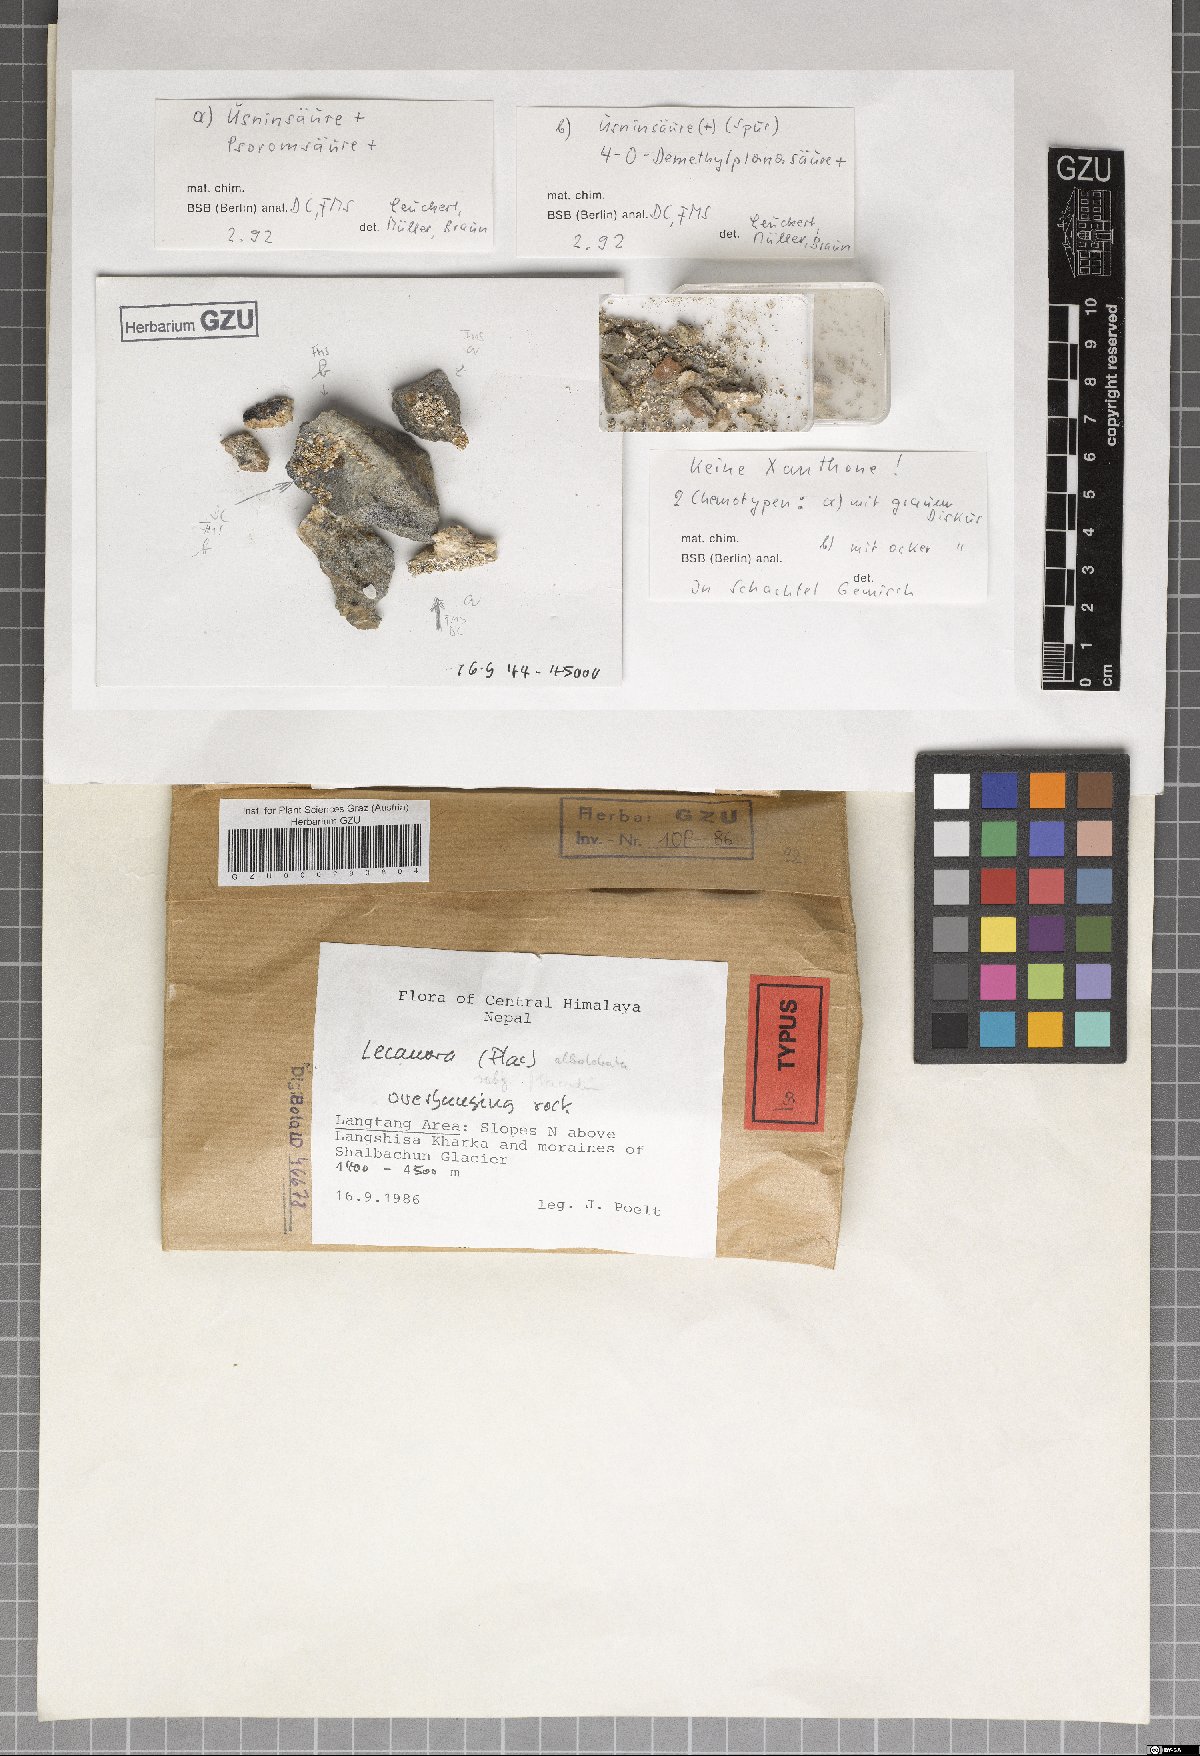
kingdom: Fungi
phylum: Ascomycota
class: Lecanoromycetes
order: Lecanorales
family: Lecanoraceae
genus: Lecanora
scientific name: Lecanora kirra
